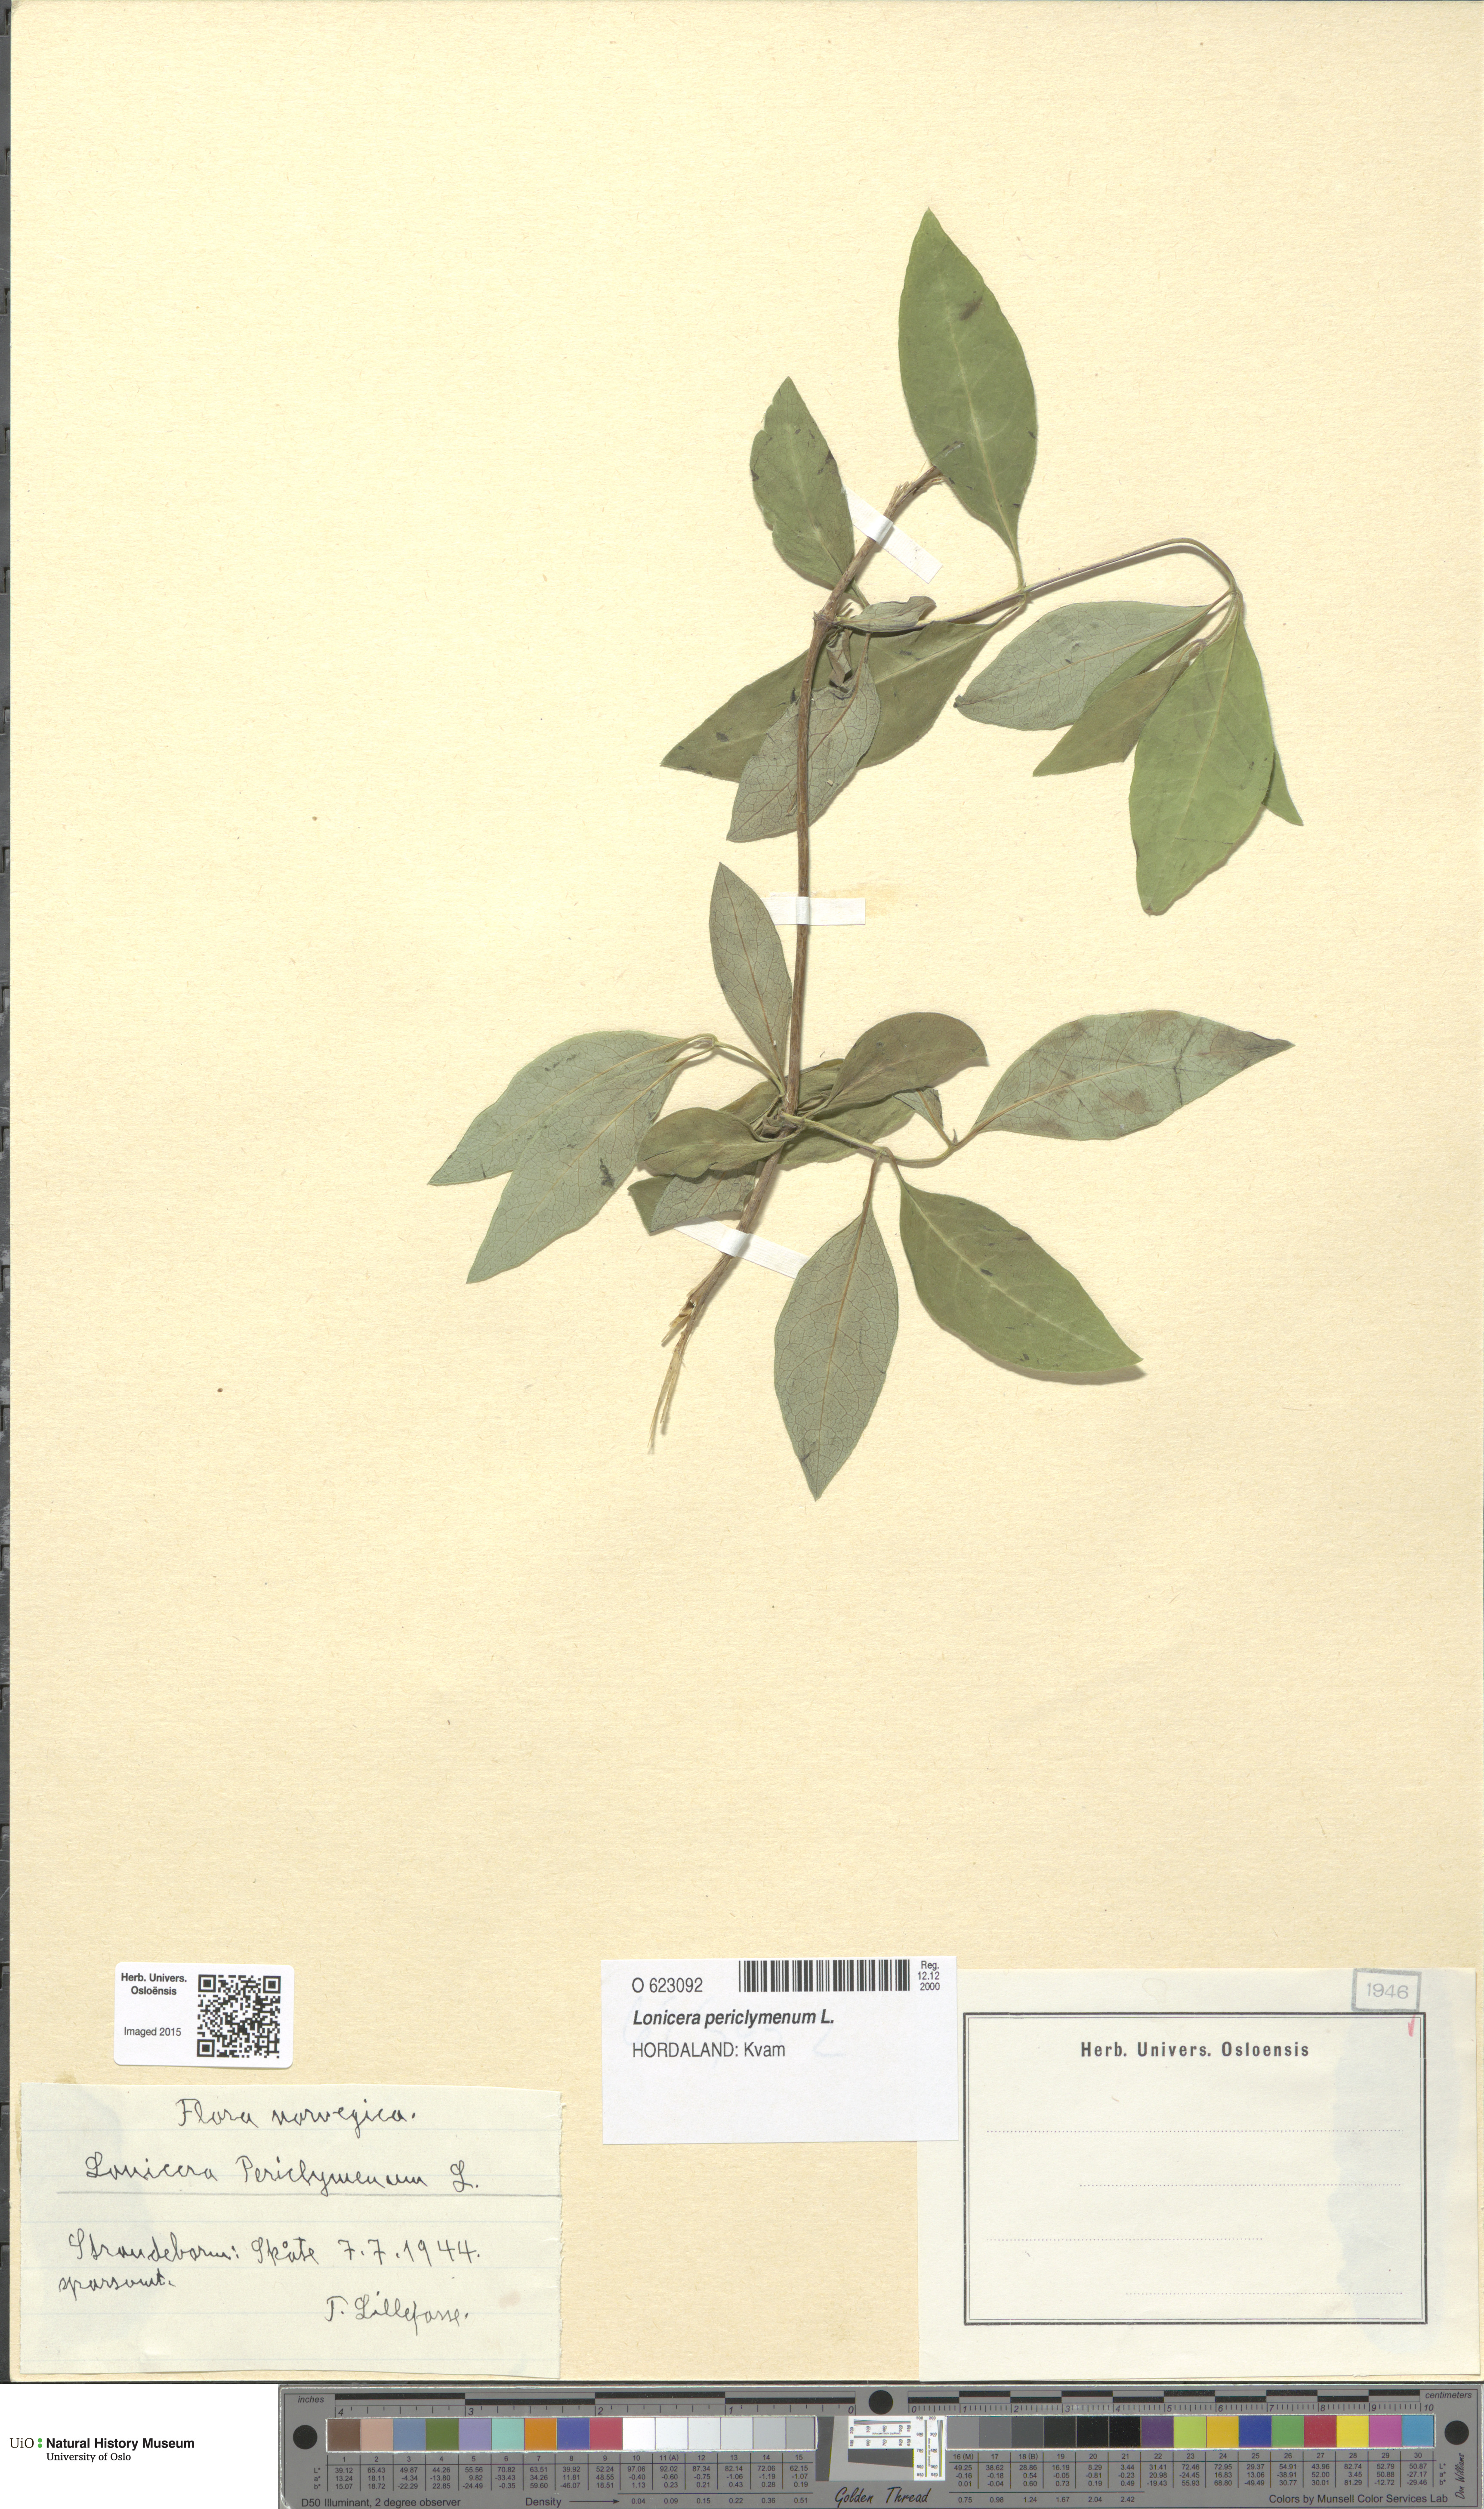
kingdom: Plantae
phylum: Tracheophyta
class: Magnoliopsida
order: Dipsacales
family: Caprifoliaceae
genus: Lonicera
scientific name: Lonicera periclymenum
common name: European honeysuckle
